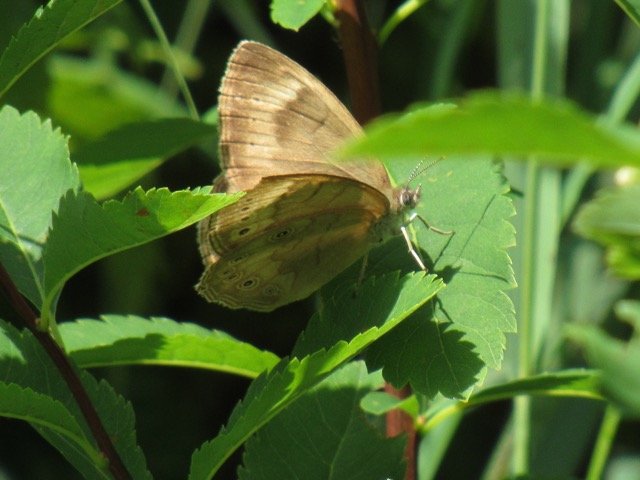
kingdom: Animalia
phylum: Arthropoda
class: Insecta
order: Lepidoptera
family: Nymphalidae
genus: Lethe
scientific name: Lethe eurydice
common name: Eyed Brown
